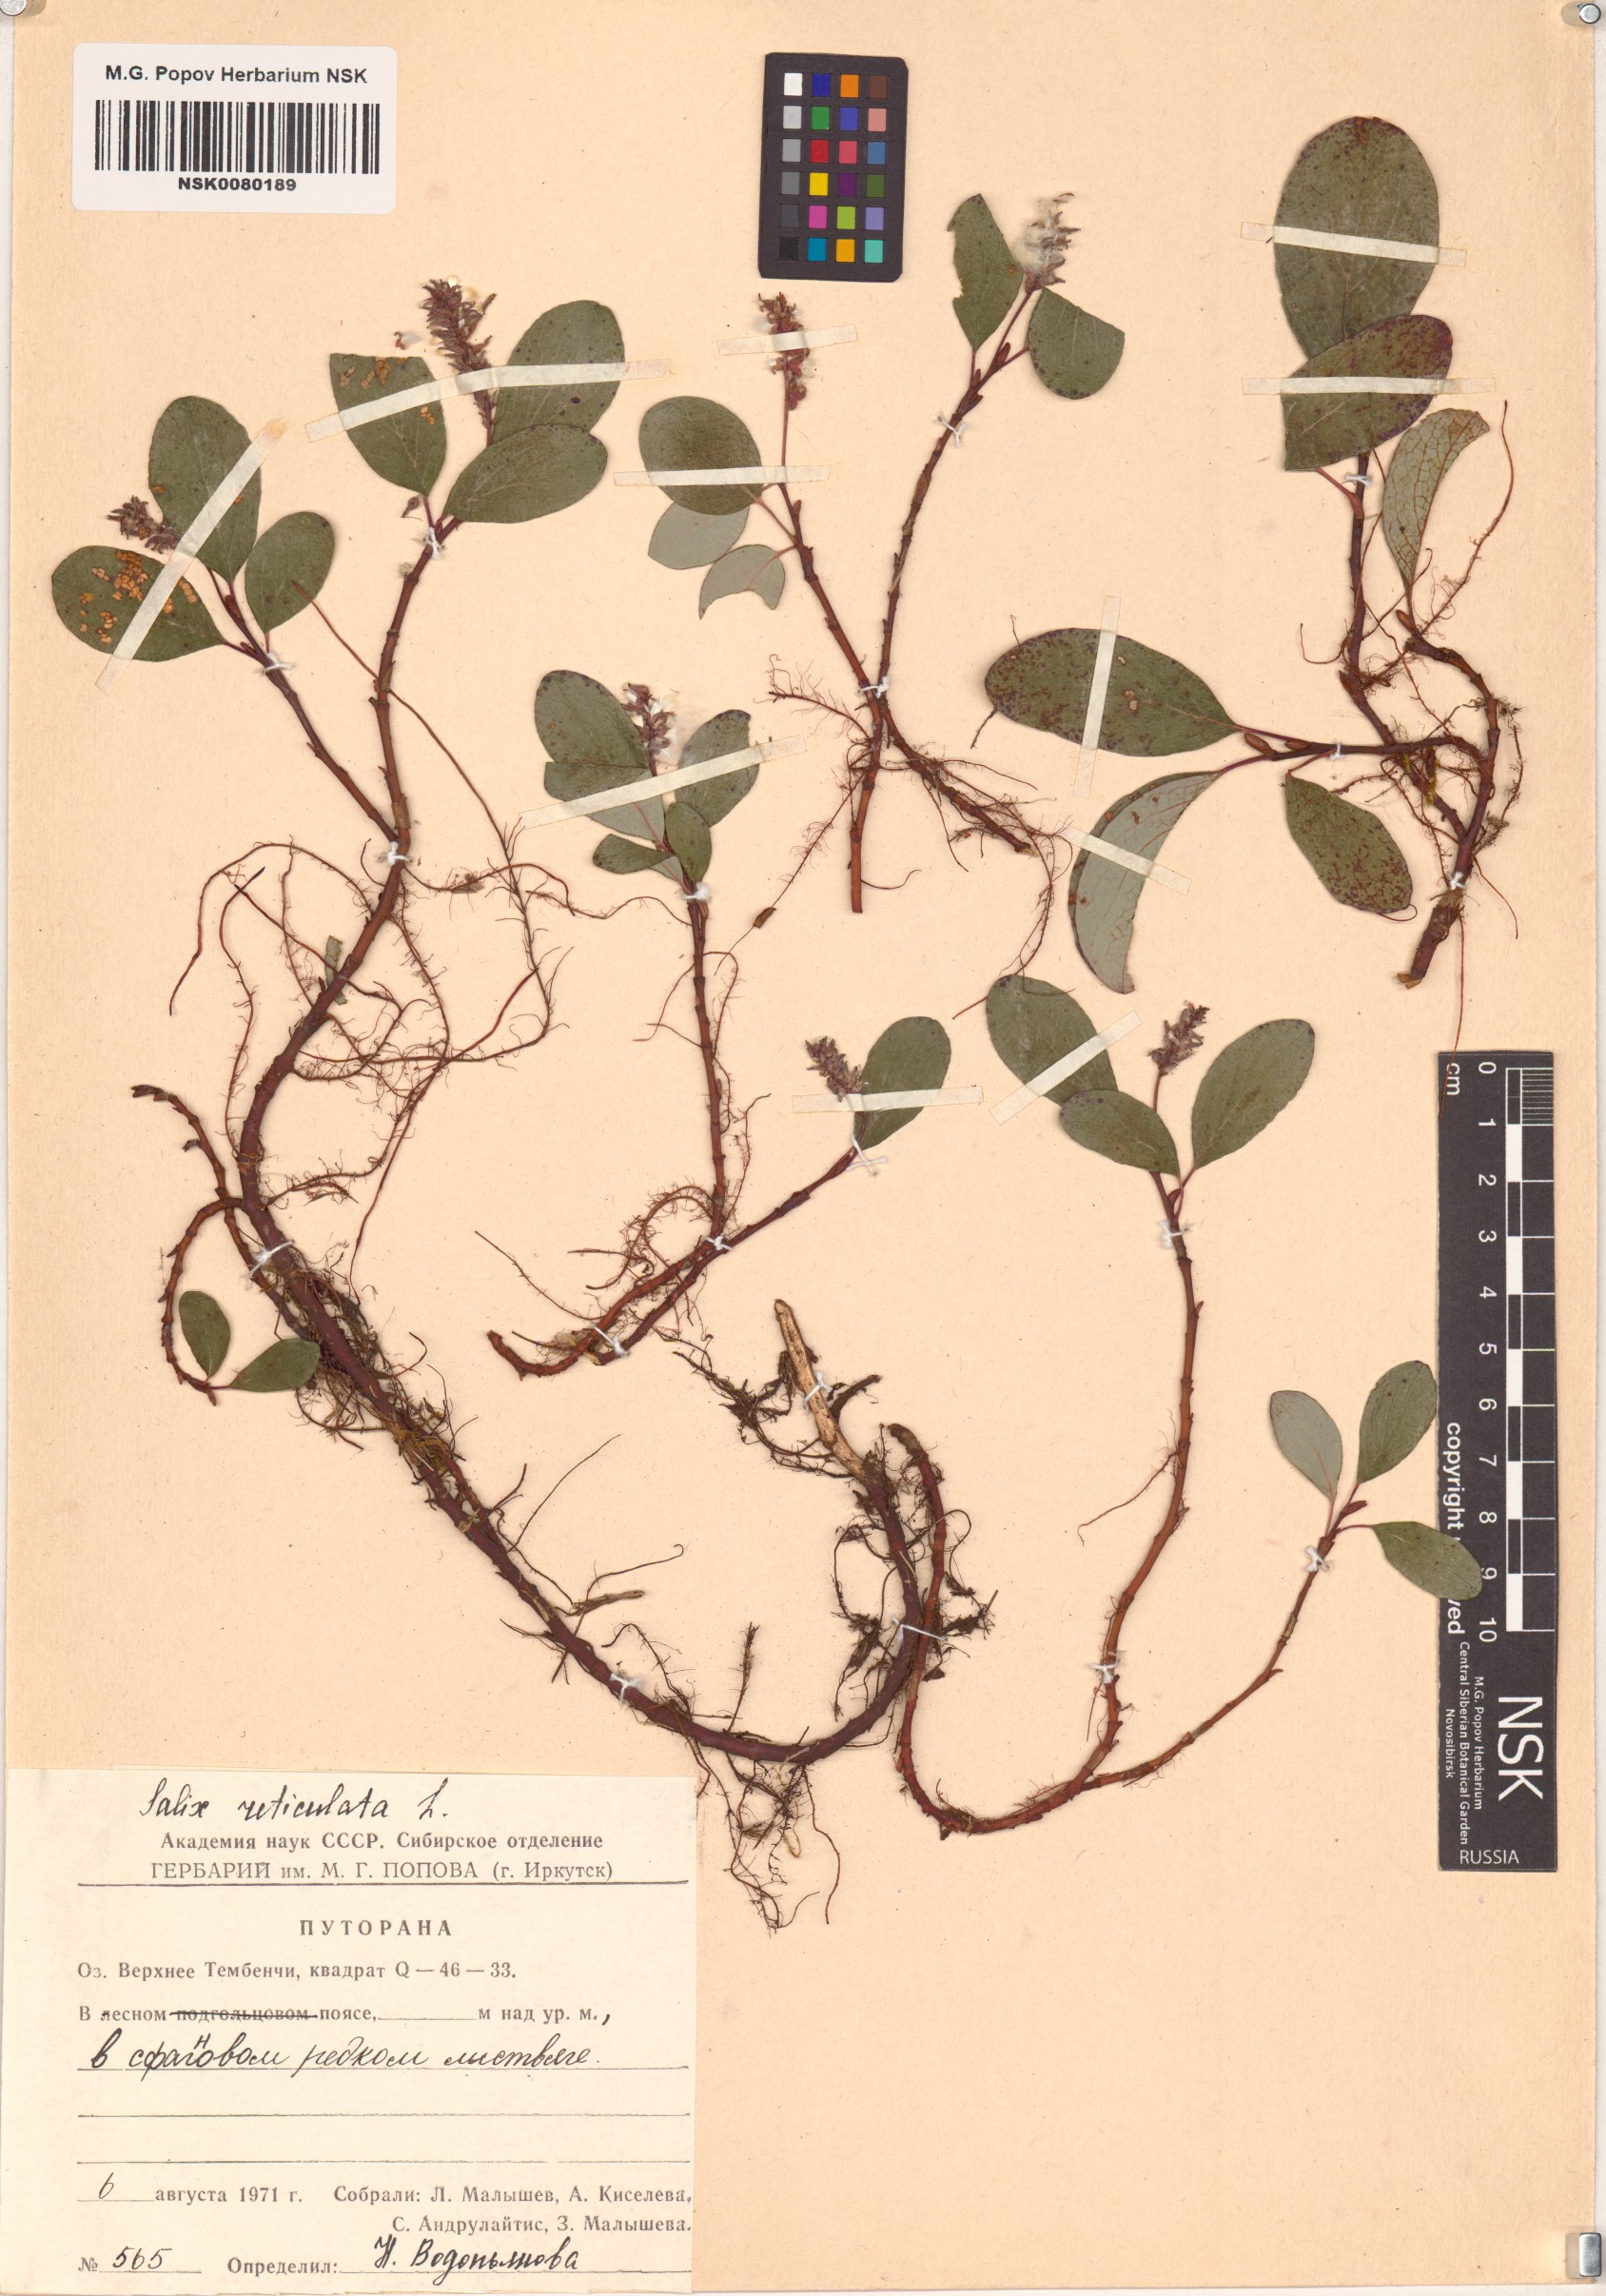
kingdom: Plantae
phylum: Tracheophyta
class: Magnoliopsida
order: Malpighiales
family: Salicaceae
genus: Salix
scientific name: Salix reticulata
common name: Net-leaved willow
